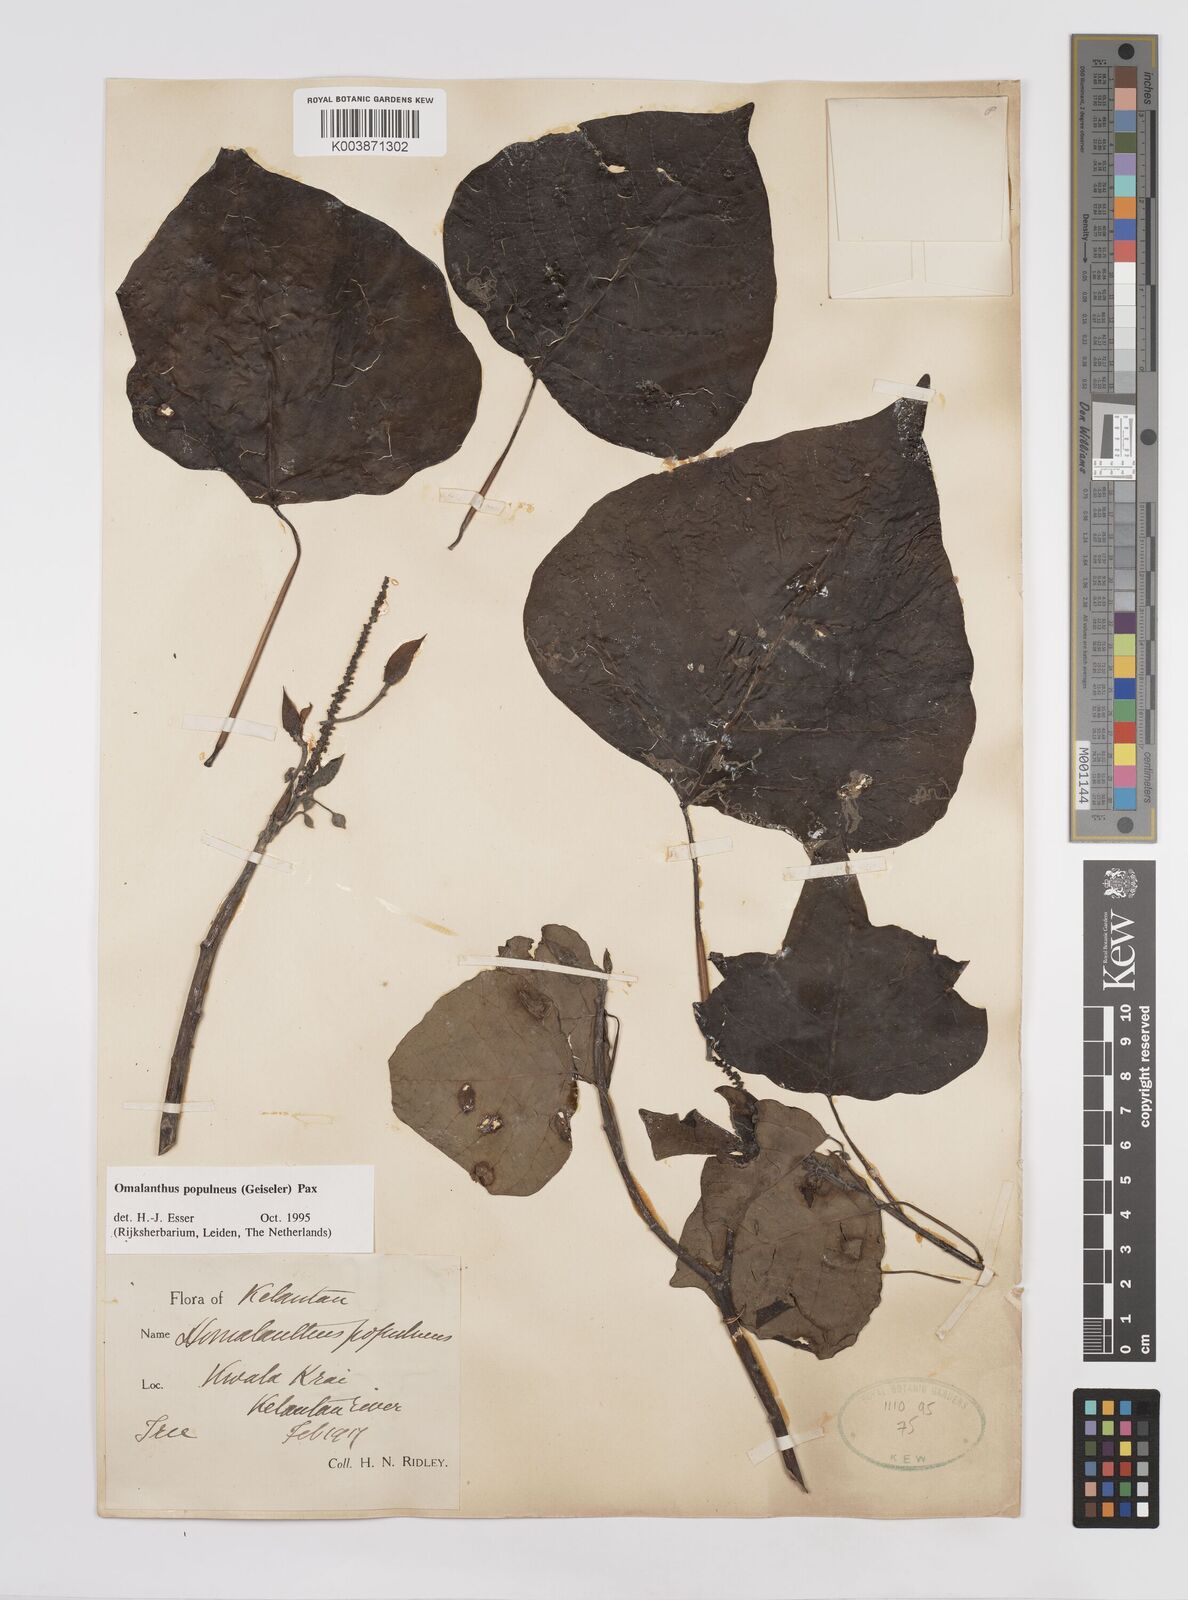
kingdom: Plantae
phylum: Tracheophyta
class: Magnoliopsida
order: Malpighiales
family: Euphorbiaceae
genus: Homalanthus
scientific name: Homalanthus populneus
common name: Spurge
